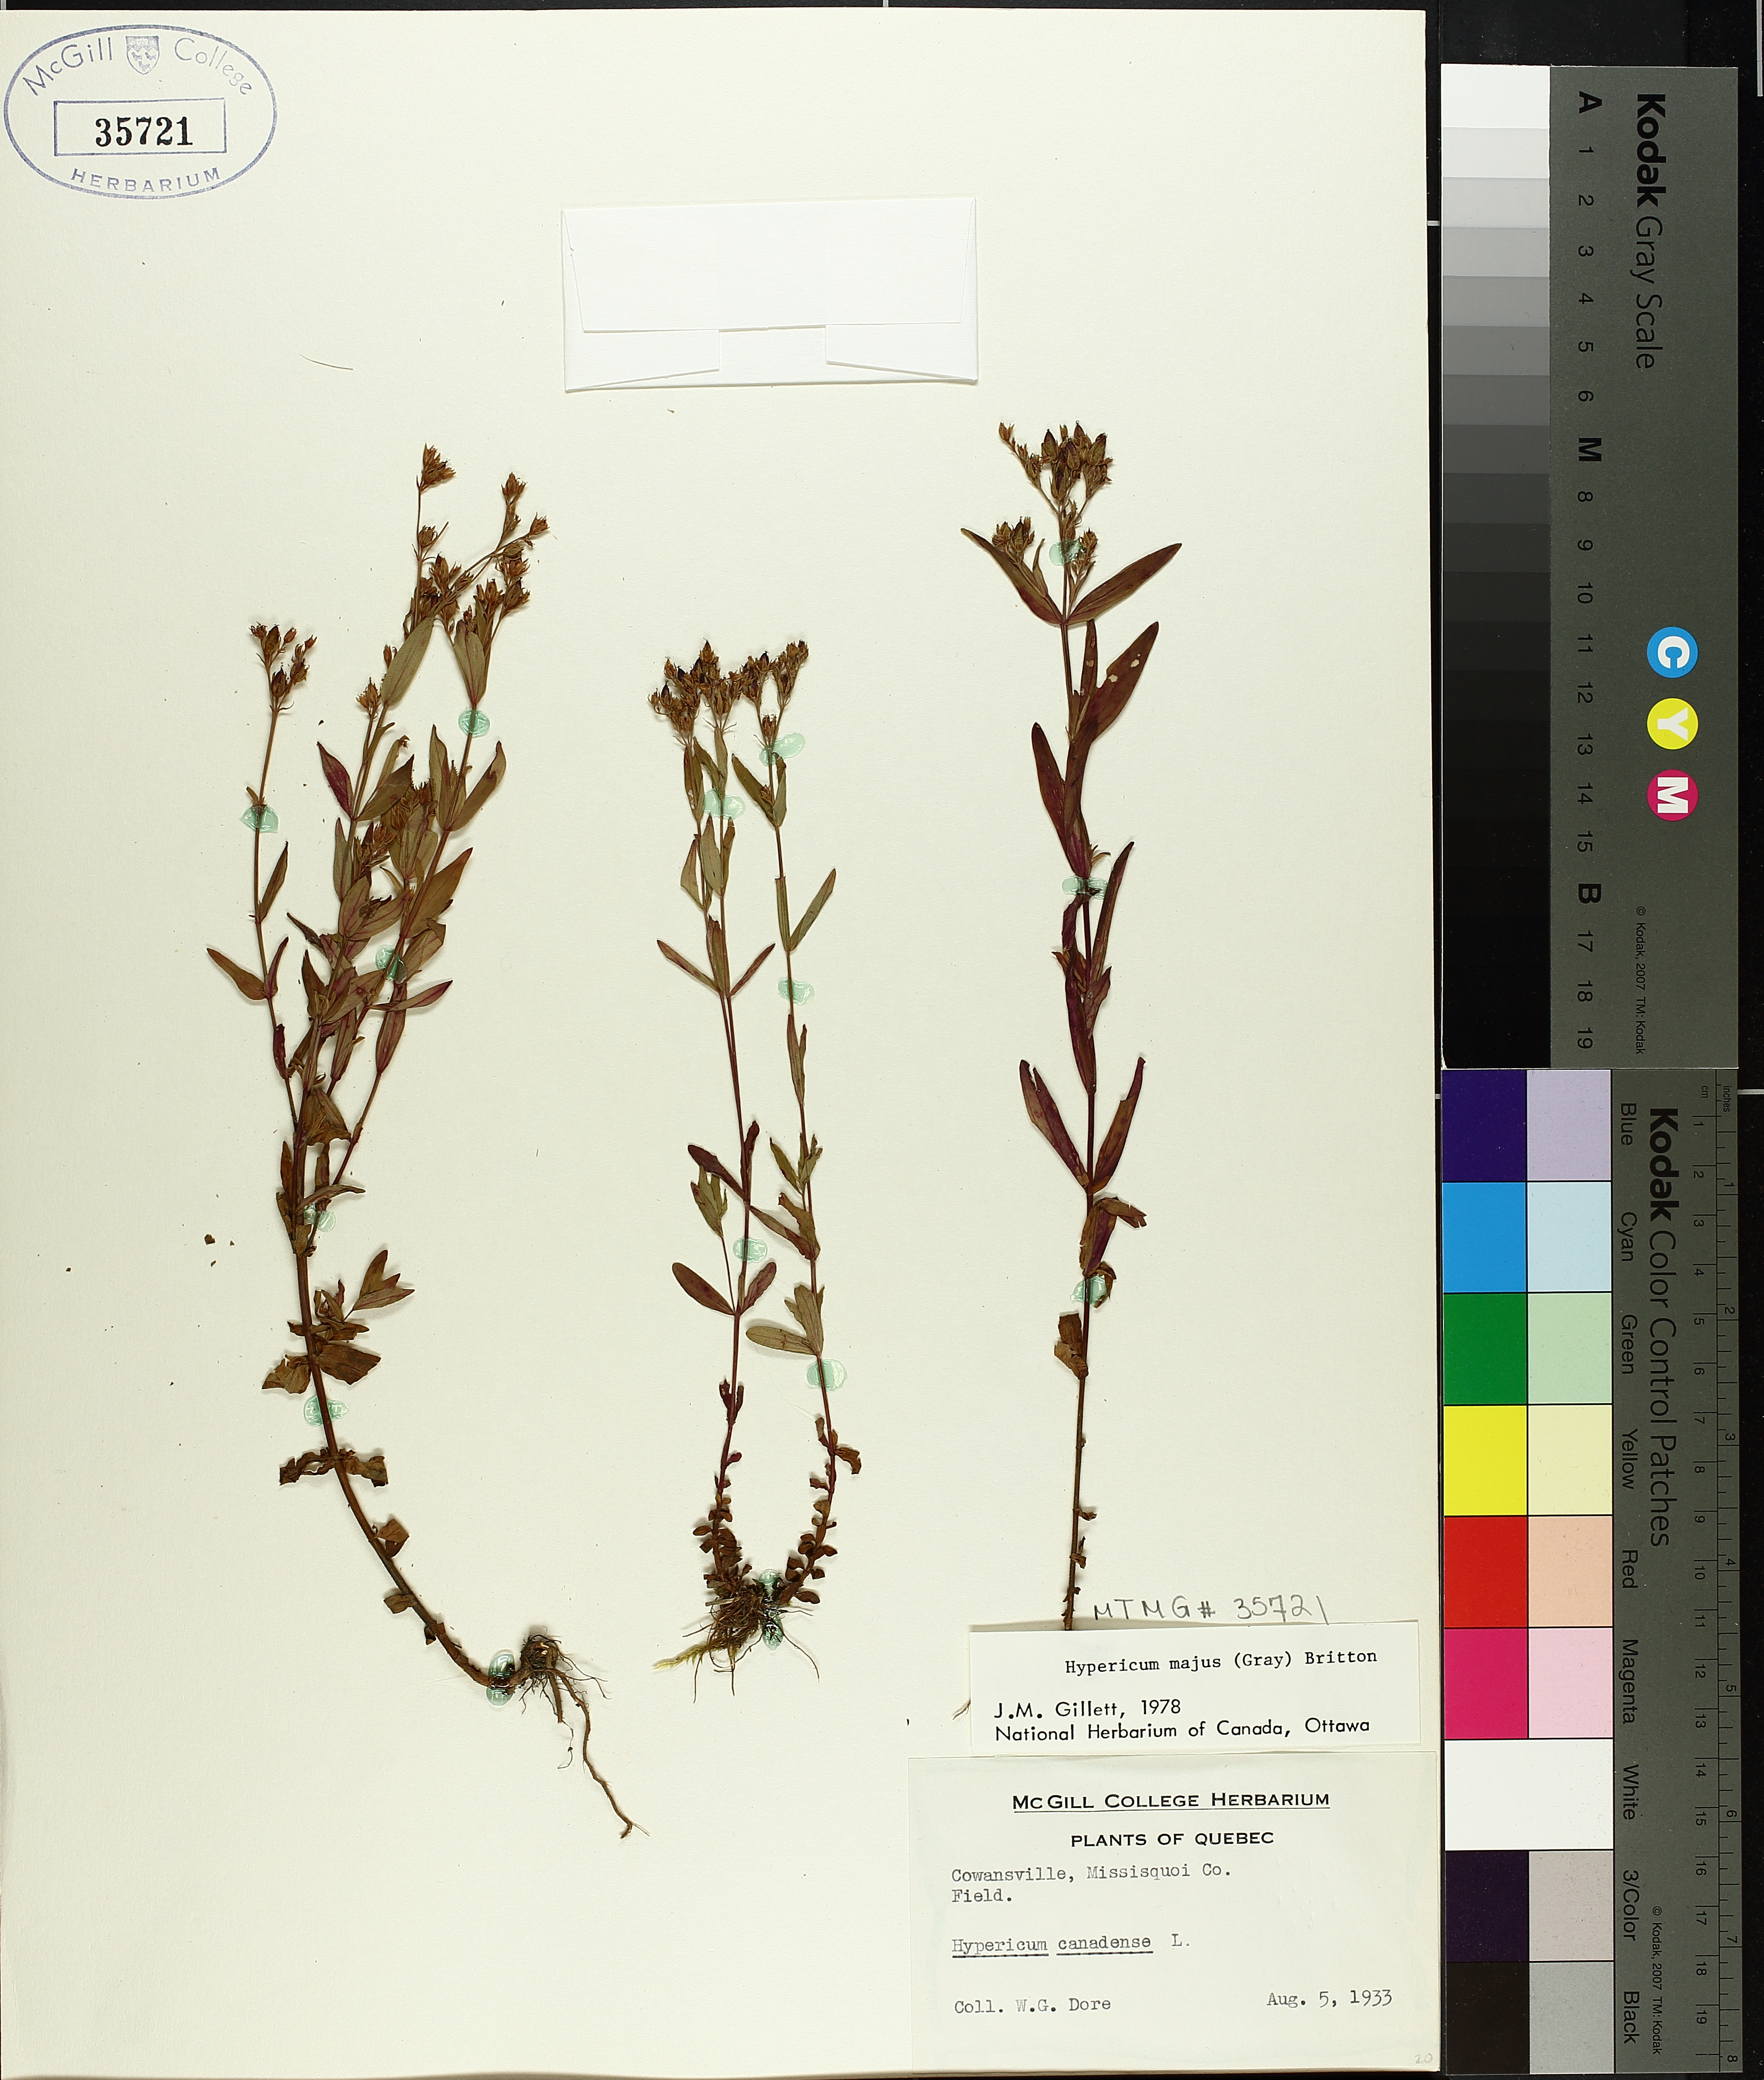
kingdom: Plantae
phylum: Tracheophyta
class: Magnoliopsida
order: Malpighiales
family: Hypericaceae
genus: Hypericum
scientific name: Hypericum majus
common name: Greater canadian st. john's-wort
